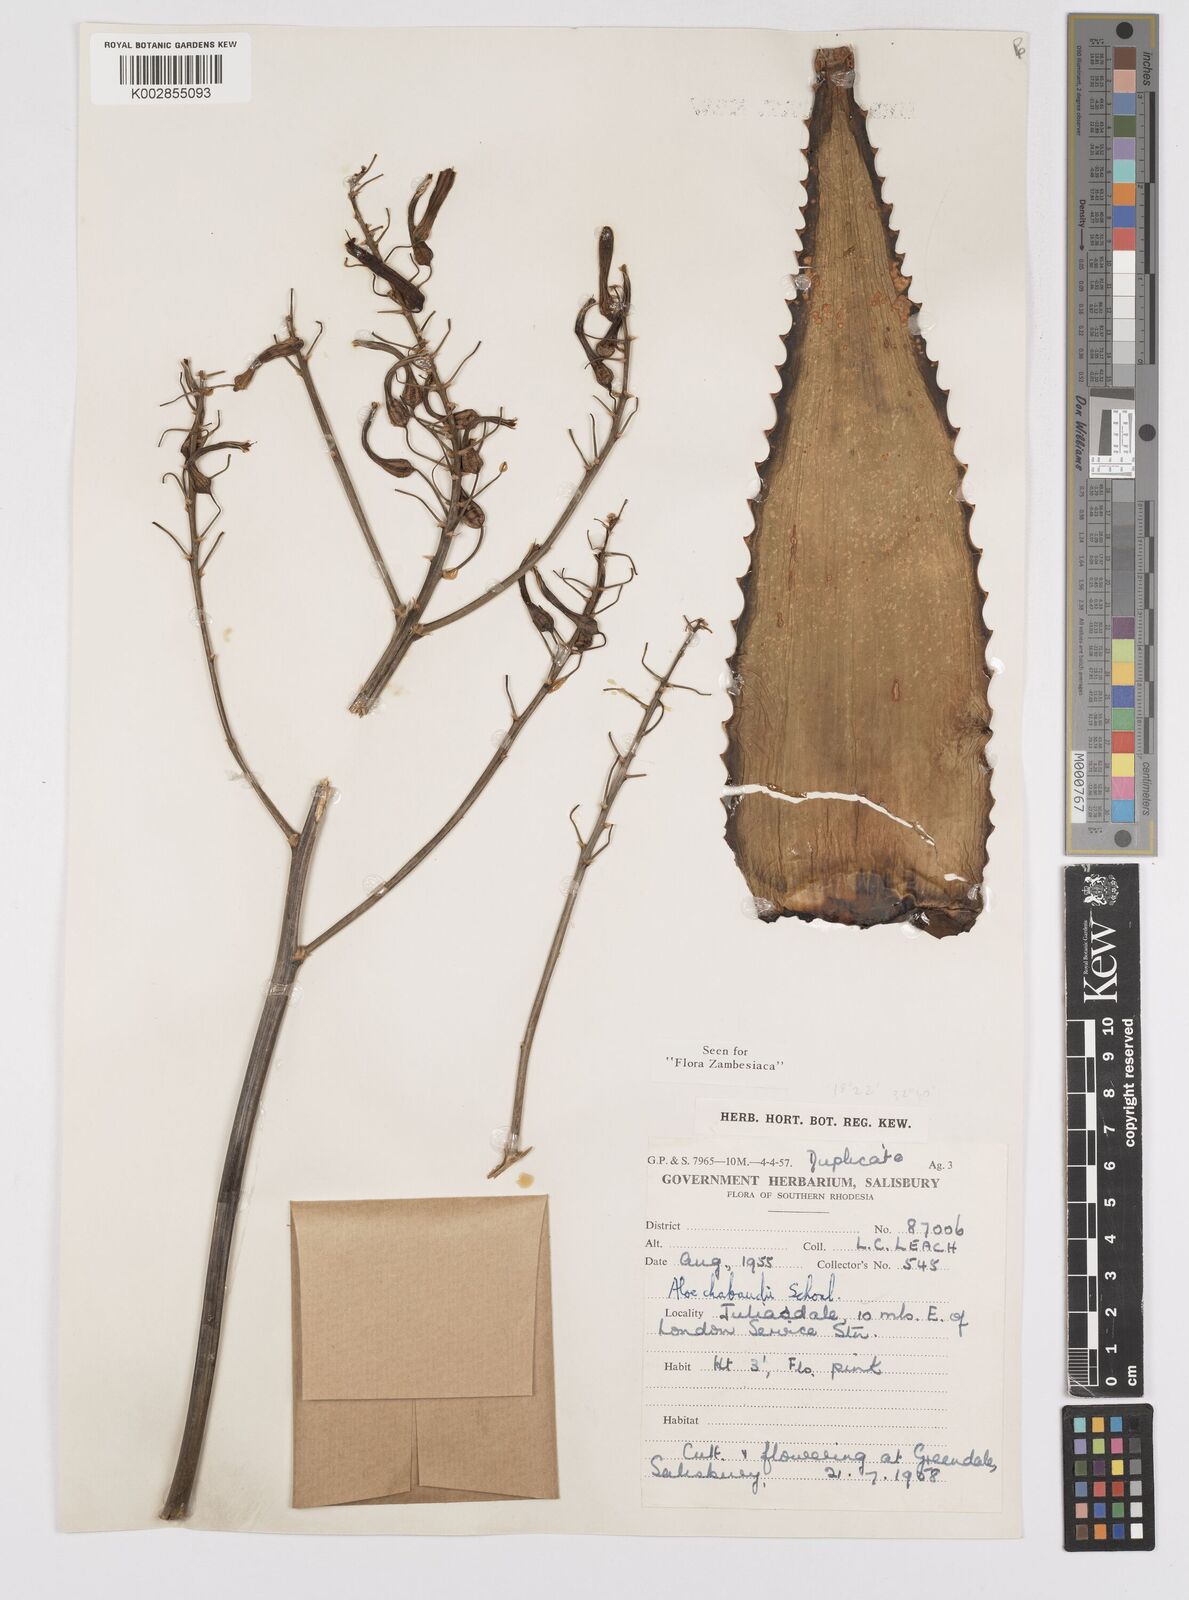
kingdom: Plantae
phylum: Tracheophyta
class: Liliopsida
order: Asparagales
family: Asphodelaceae
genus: Aloe
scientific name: Aloe chabaudii
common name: Chabaud's aloe
